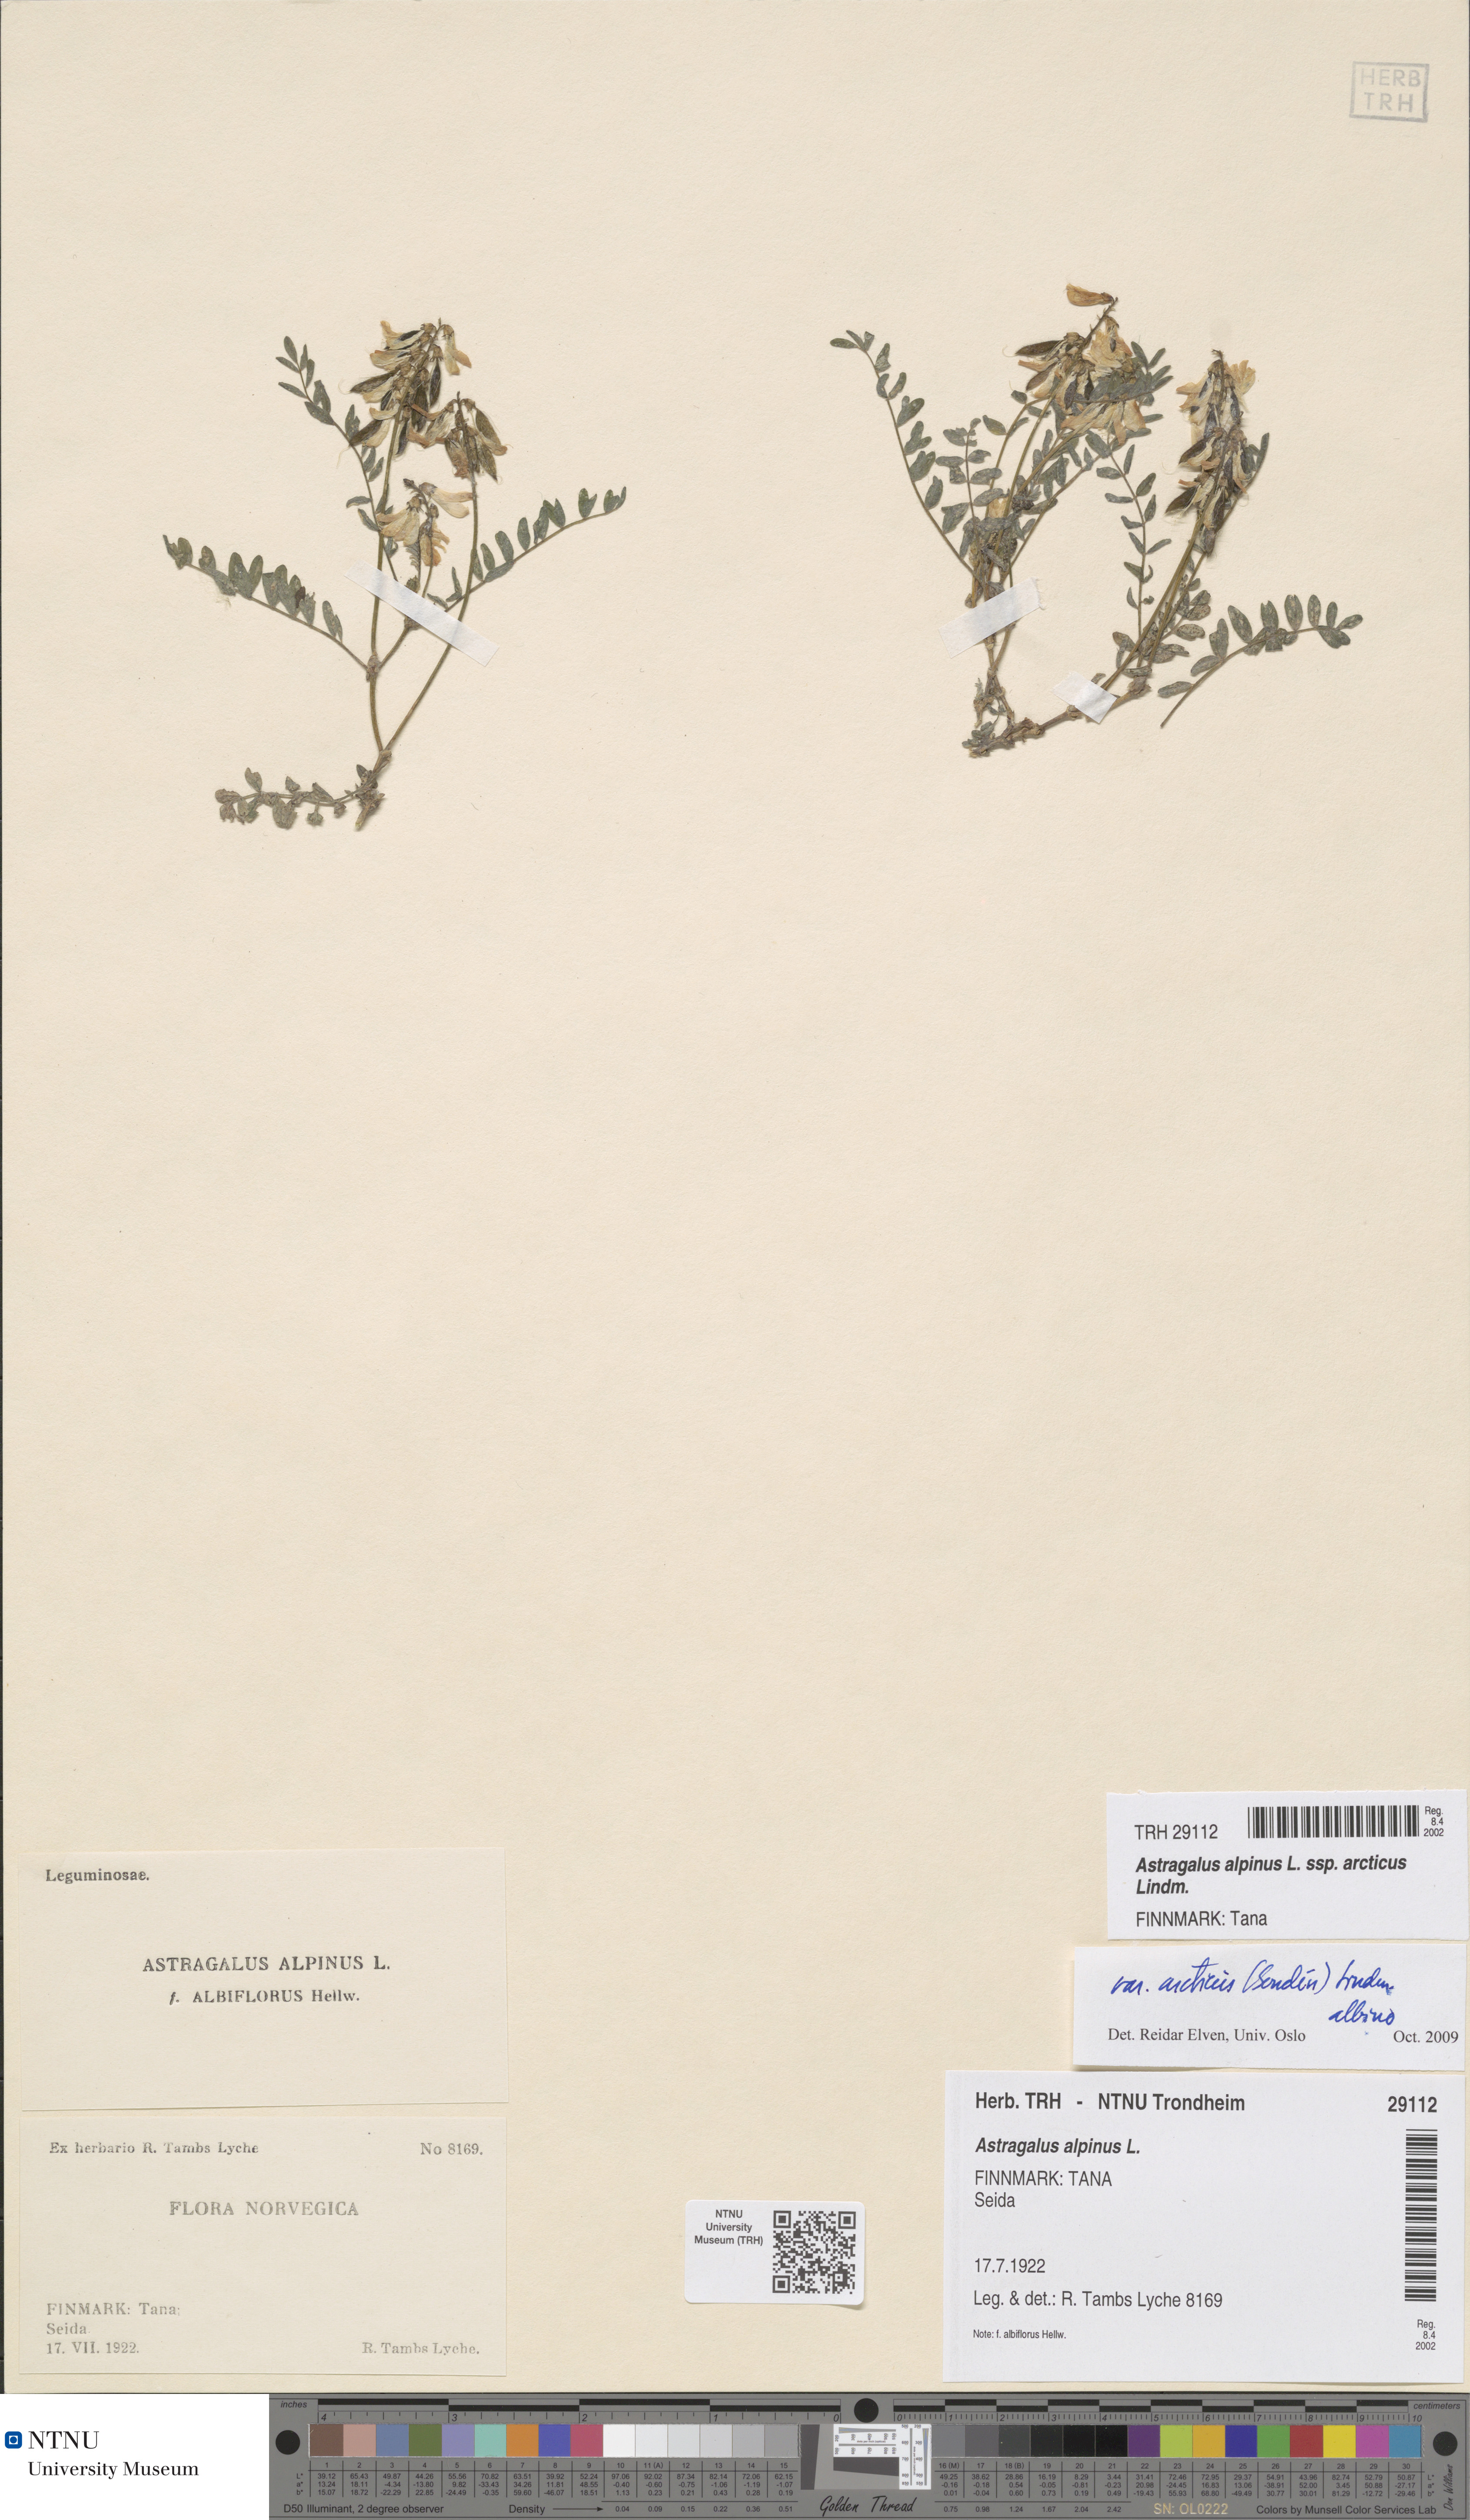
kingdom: Plantae
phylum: Tracheophyta
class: Magnoliopsida
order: Fabales
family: Fabaceae
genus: Astragalus
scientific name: Astragalus norvegicus
